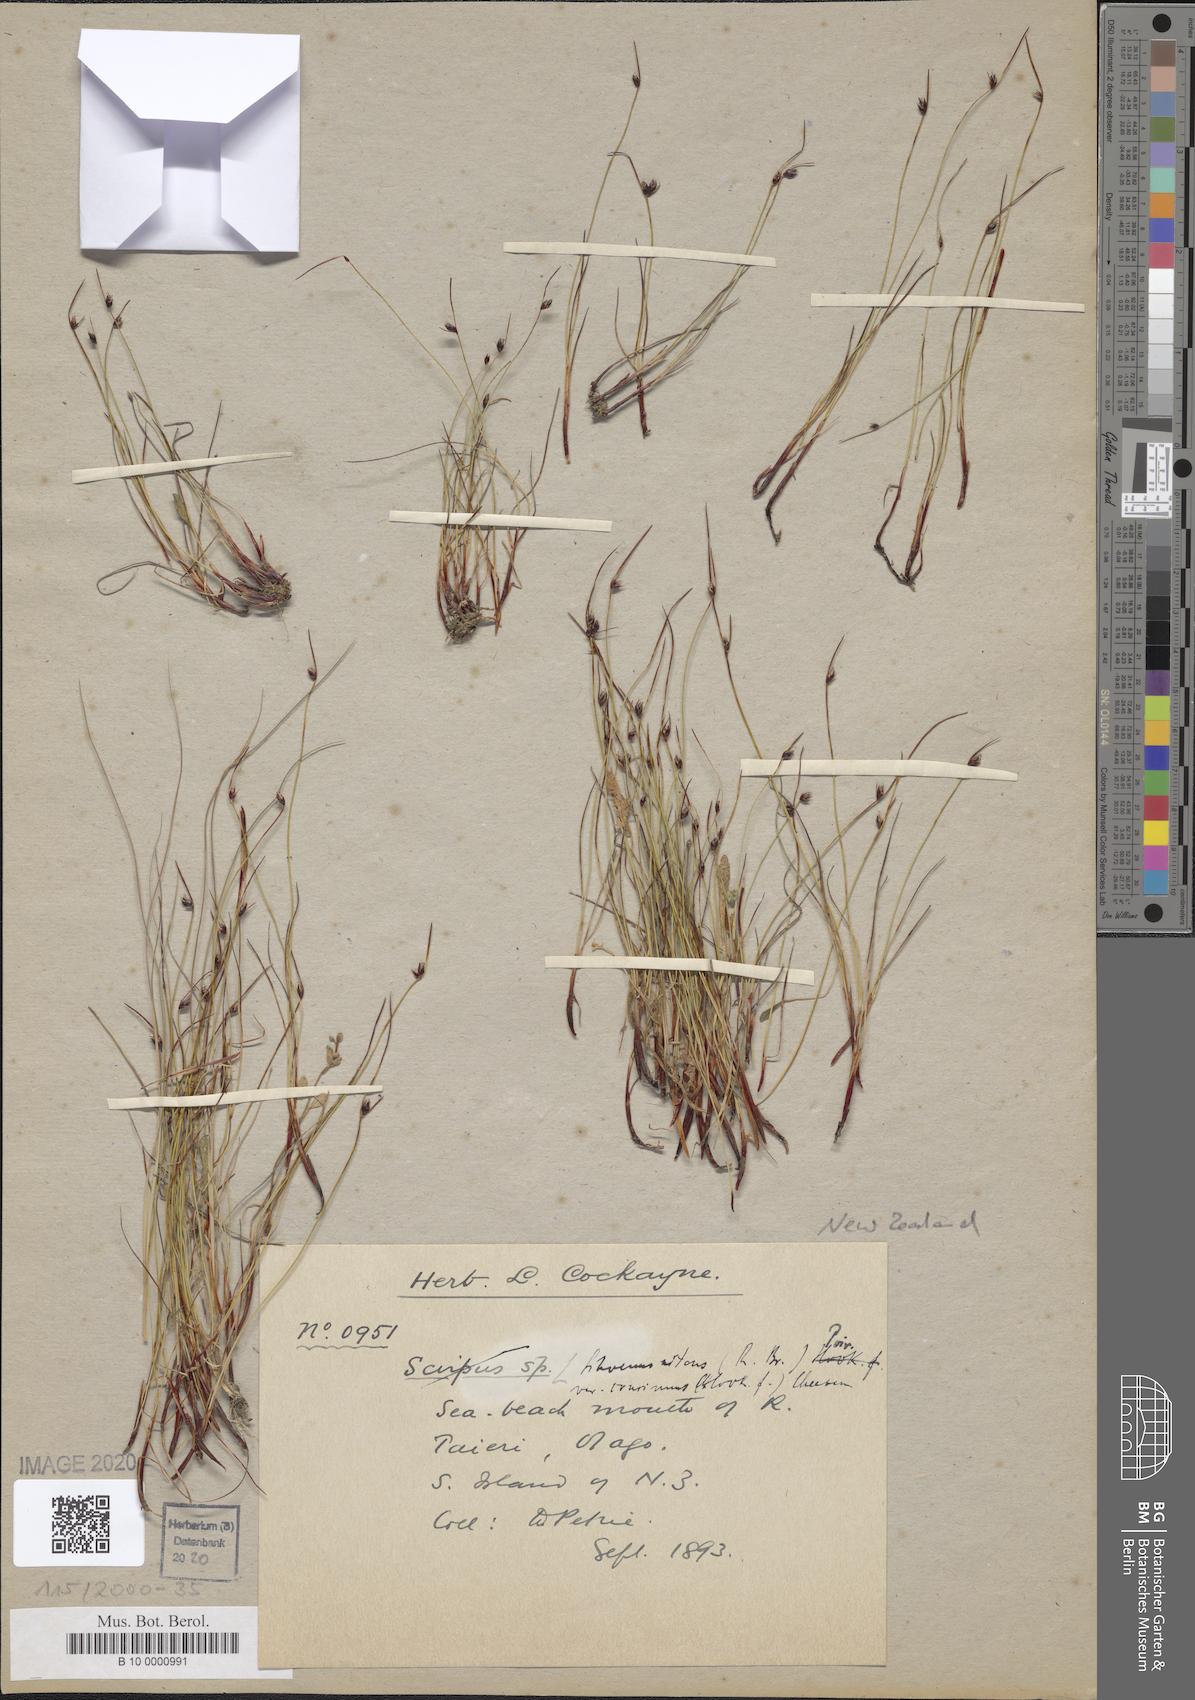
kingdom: Plantae
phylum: Tracheophyta
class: Liliopsida
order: Poales
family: Cyperaceae
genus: Schoenus
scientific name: Schoenus nitens
